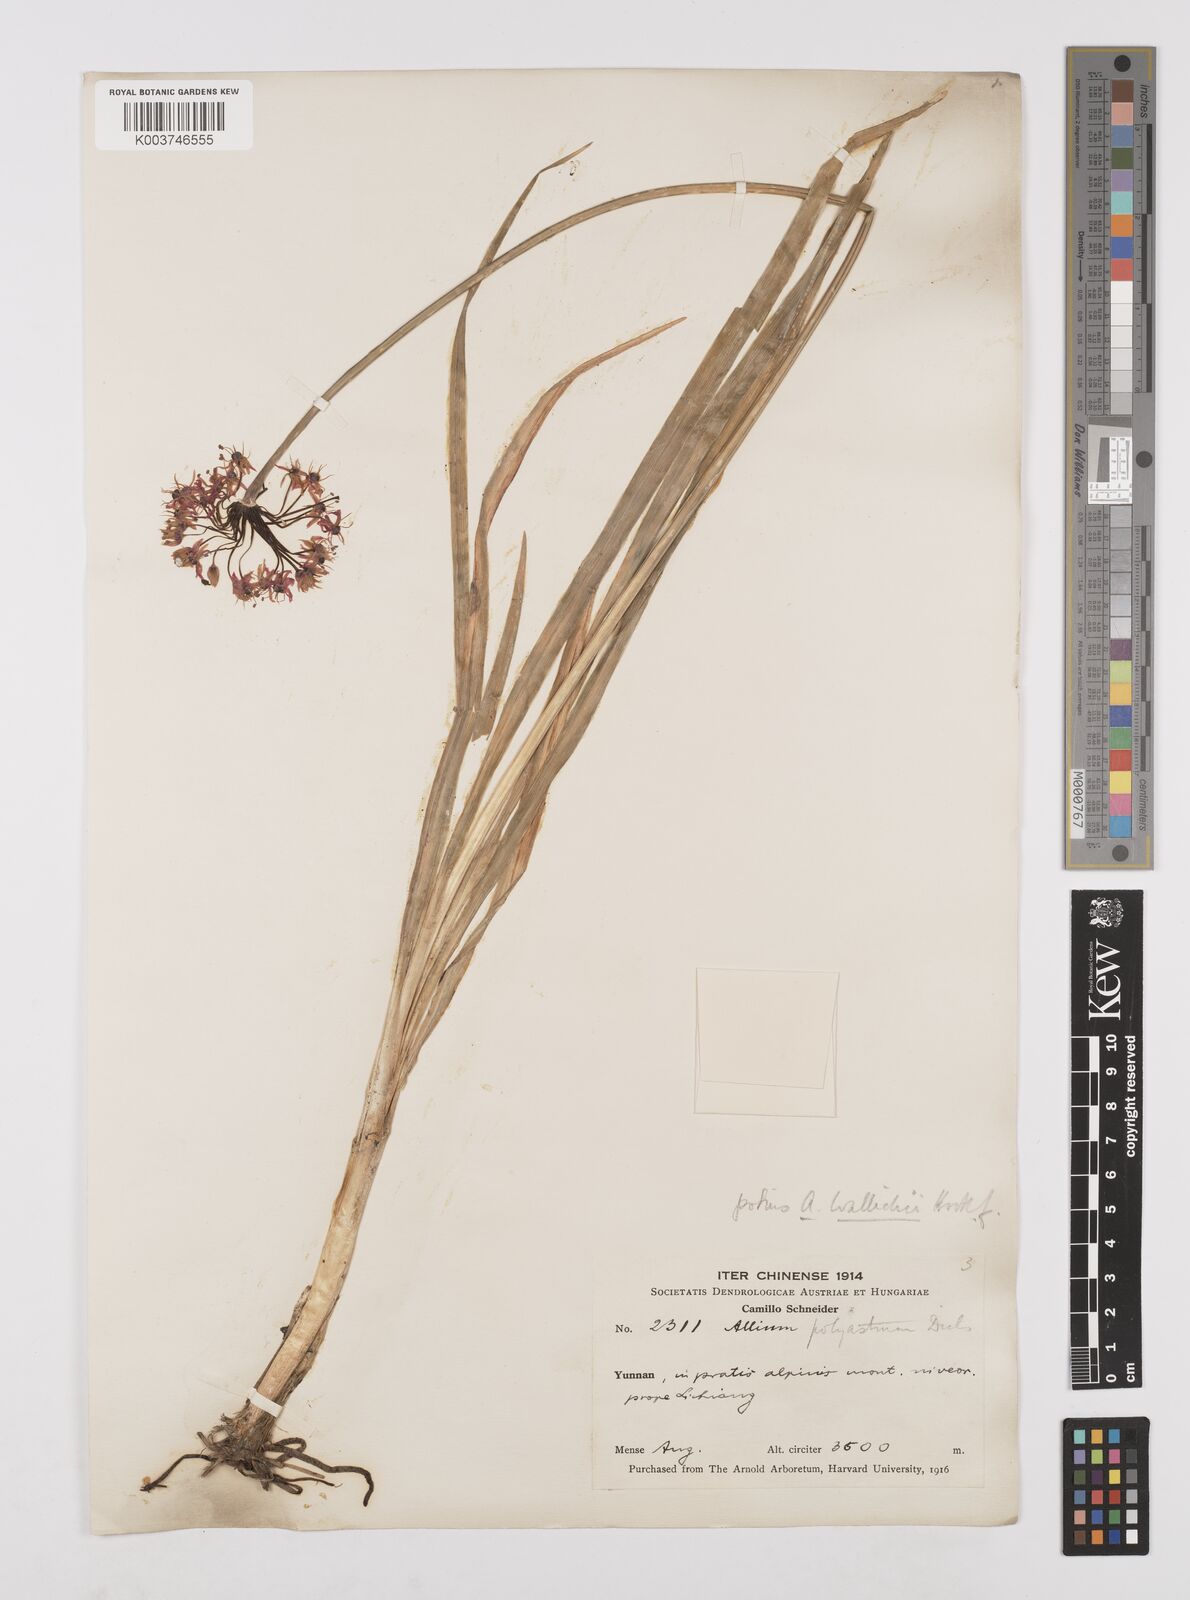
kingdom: Plantae
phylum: Tracheophyta
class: Liliopsida
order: Asparagales
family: Amaryllidaceae
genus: Allium
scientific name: Allium wallichii
